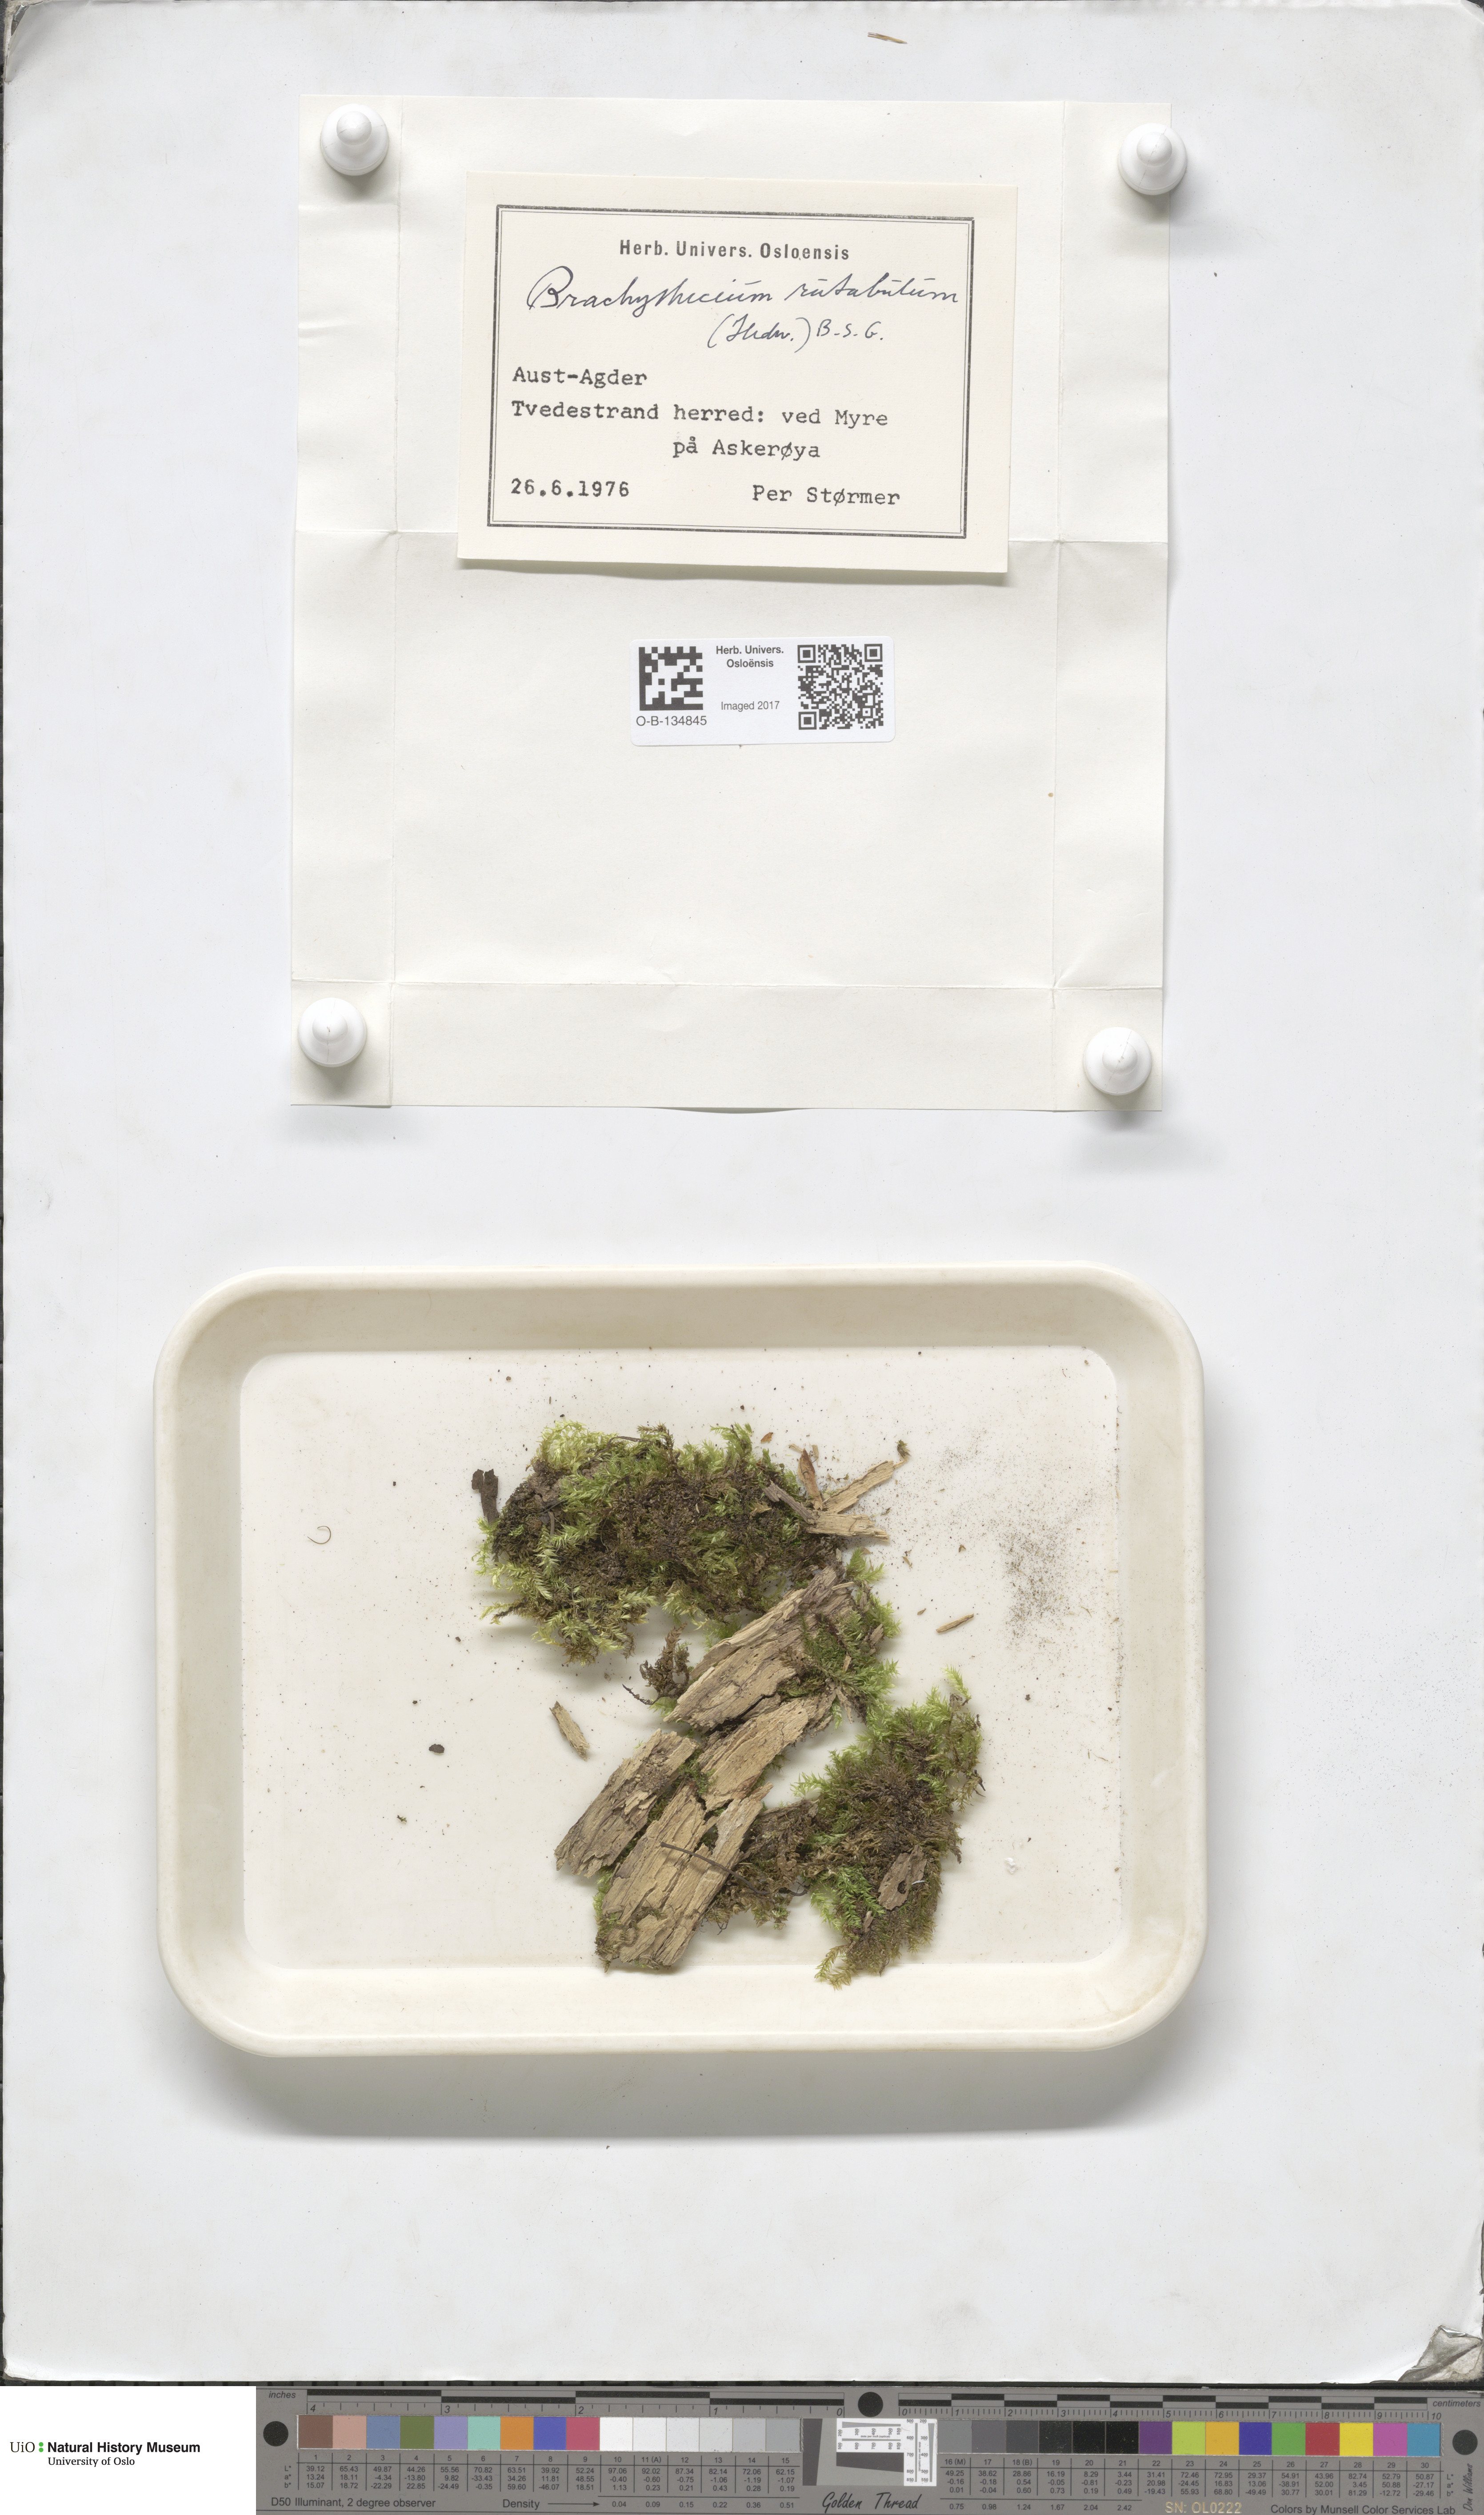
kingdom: Plantae
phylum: Bryophyta
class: Bryopsida
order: Hypnales
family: Brachytheciaceae
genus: Brachythecium
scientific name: Brachythecium rutabulum
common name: Rough-stalked feather-moss
